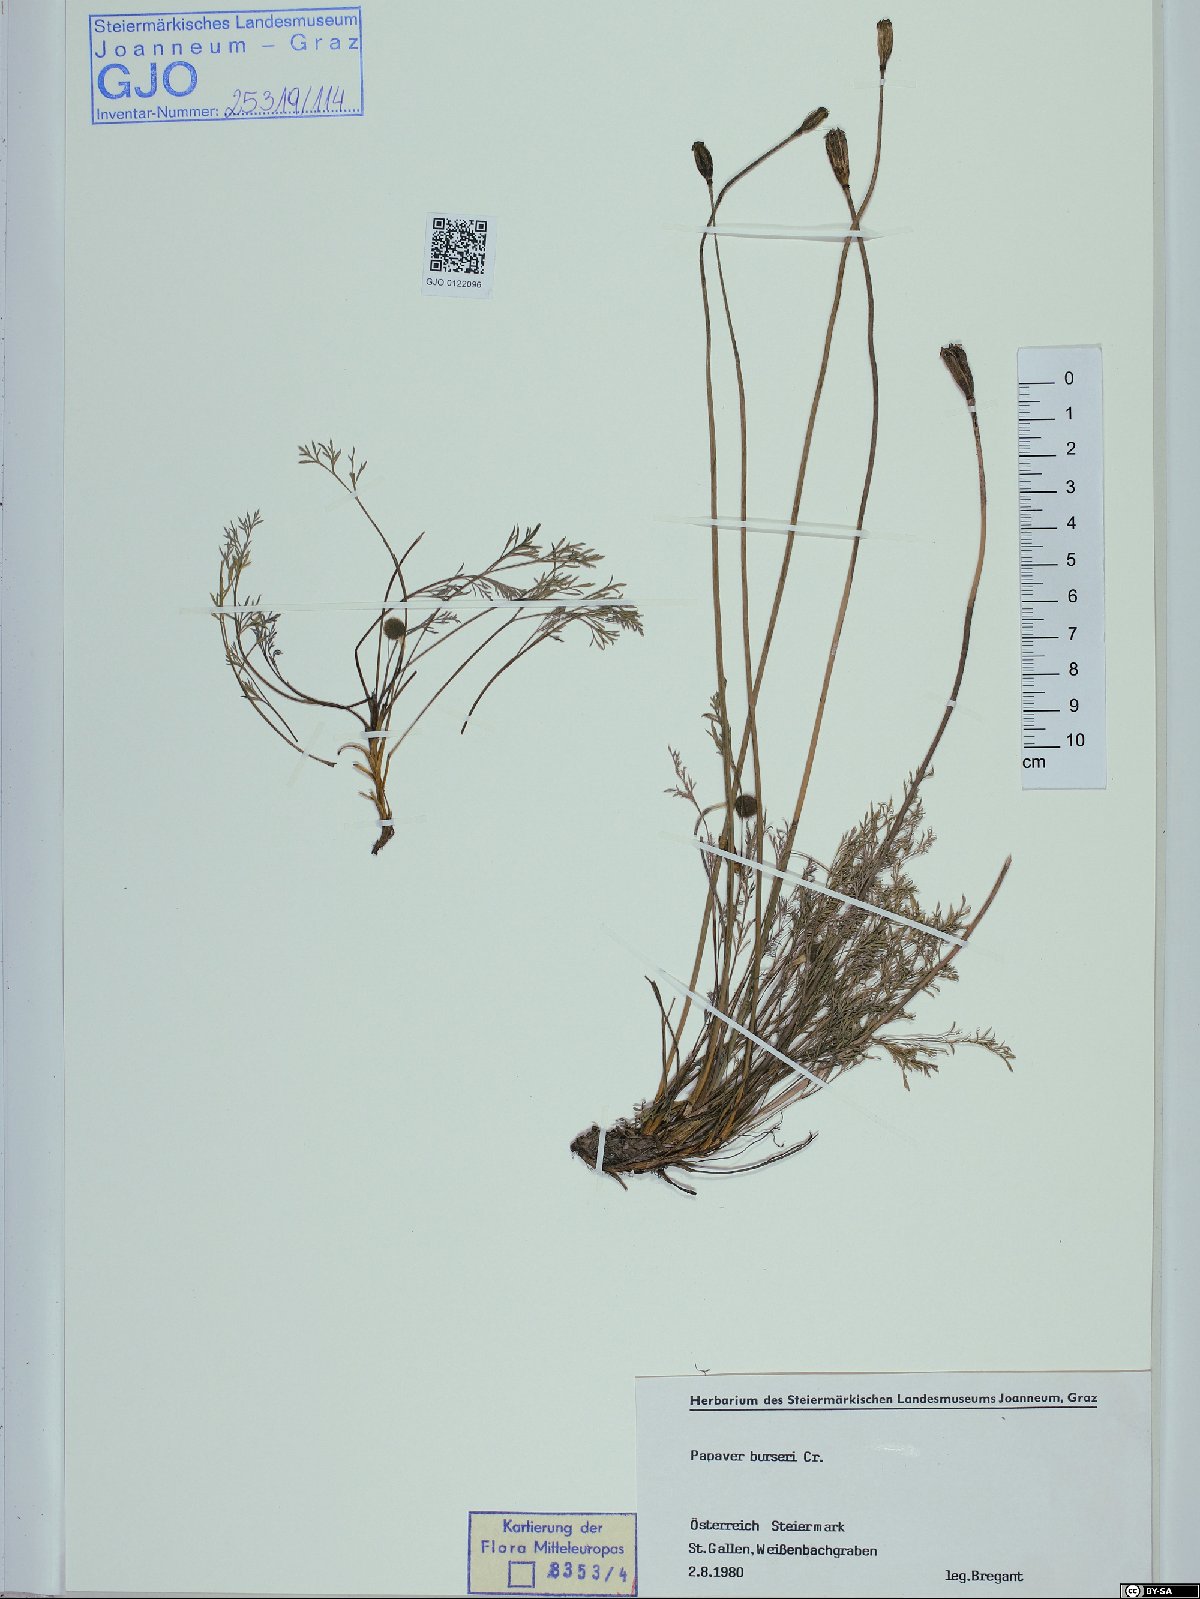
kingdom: Plantae
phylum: Tracheophyta
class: Magnoliopsida
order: Ranunculales
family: Papaveraceae
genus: Papaver
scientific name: Papaver alpinum
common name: Austrian poppy
